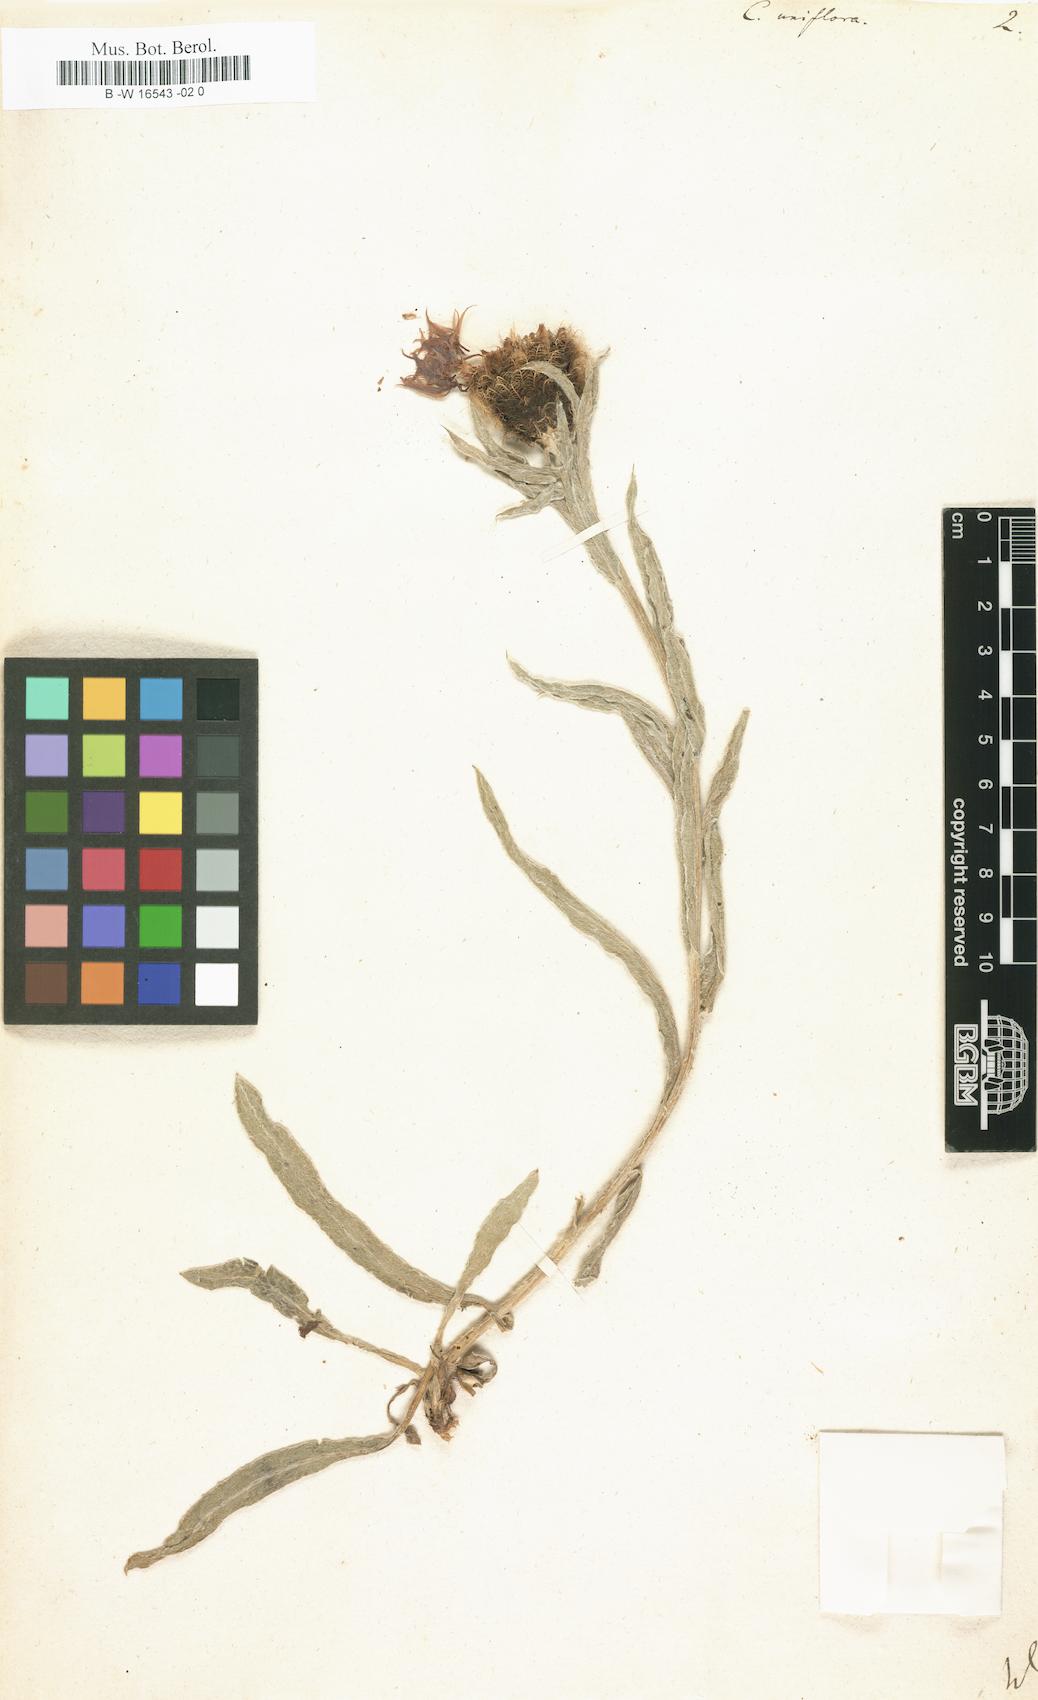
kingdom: Plantae
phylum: Tracheophyta
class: Magnoliopsida
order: Asterales
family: Asteraceae
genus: Centaurea
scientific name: Centaurea uniflora
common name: Singleflower knapweed
